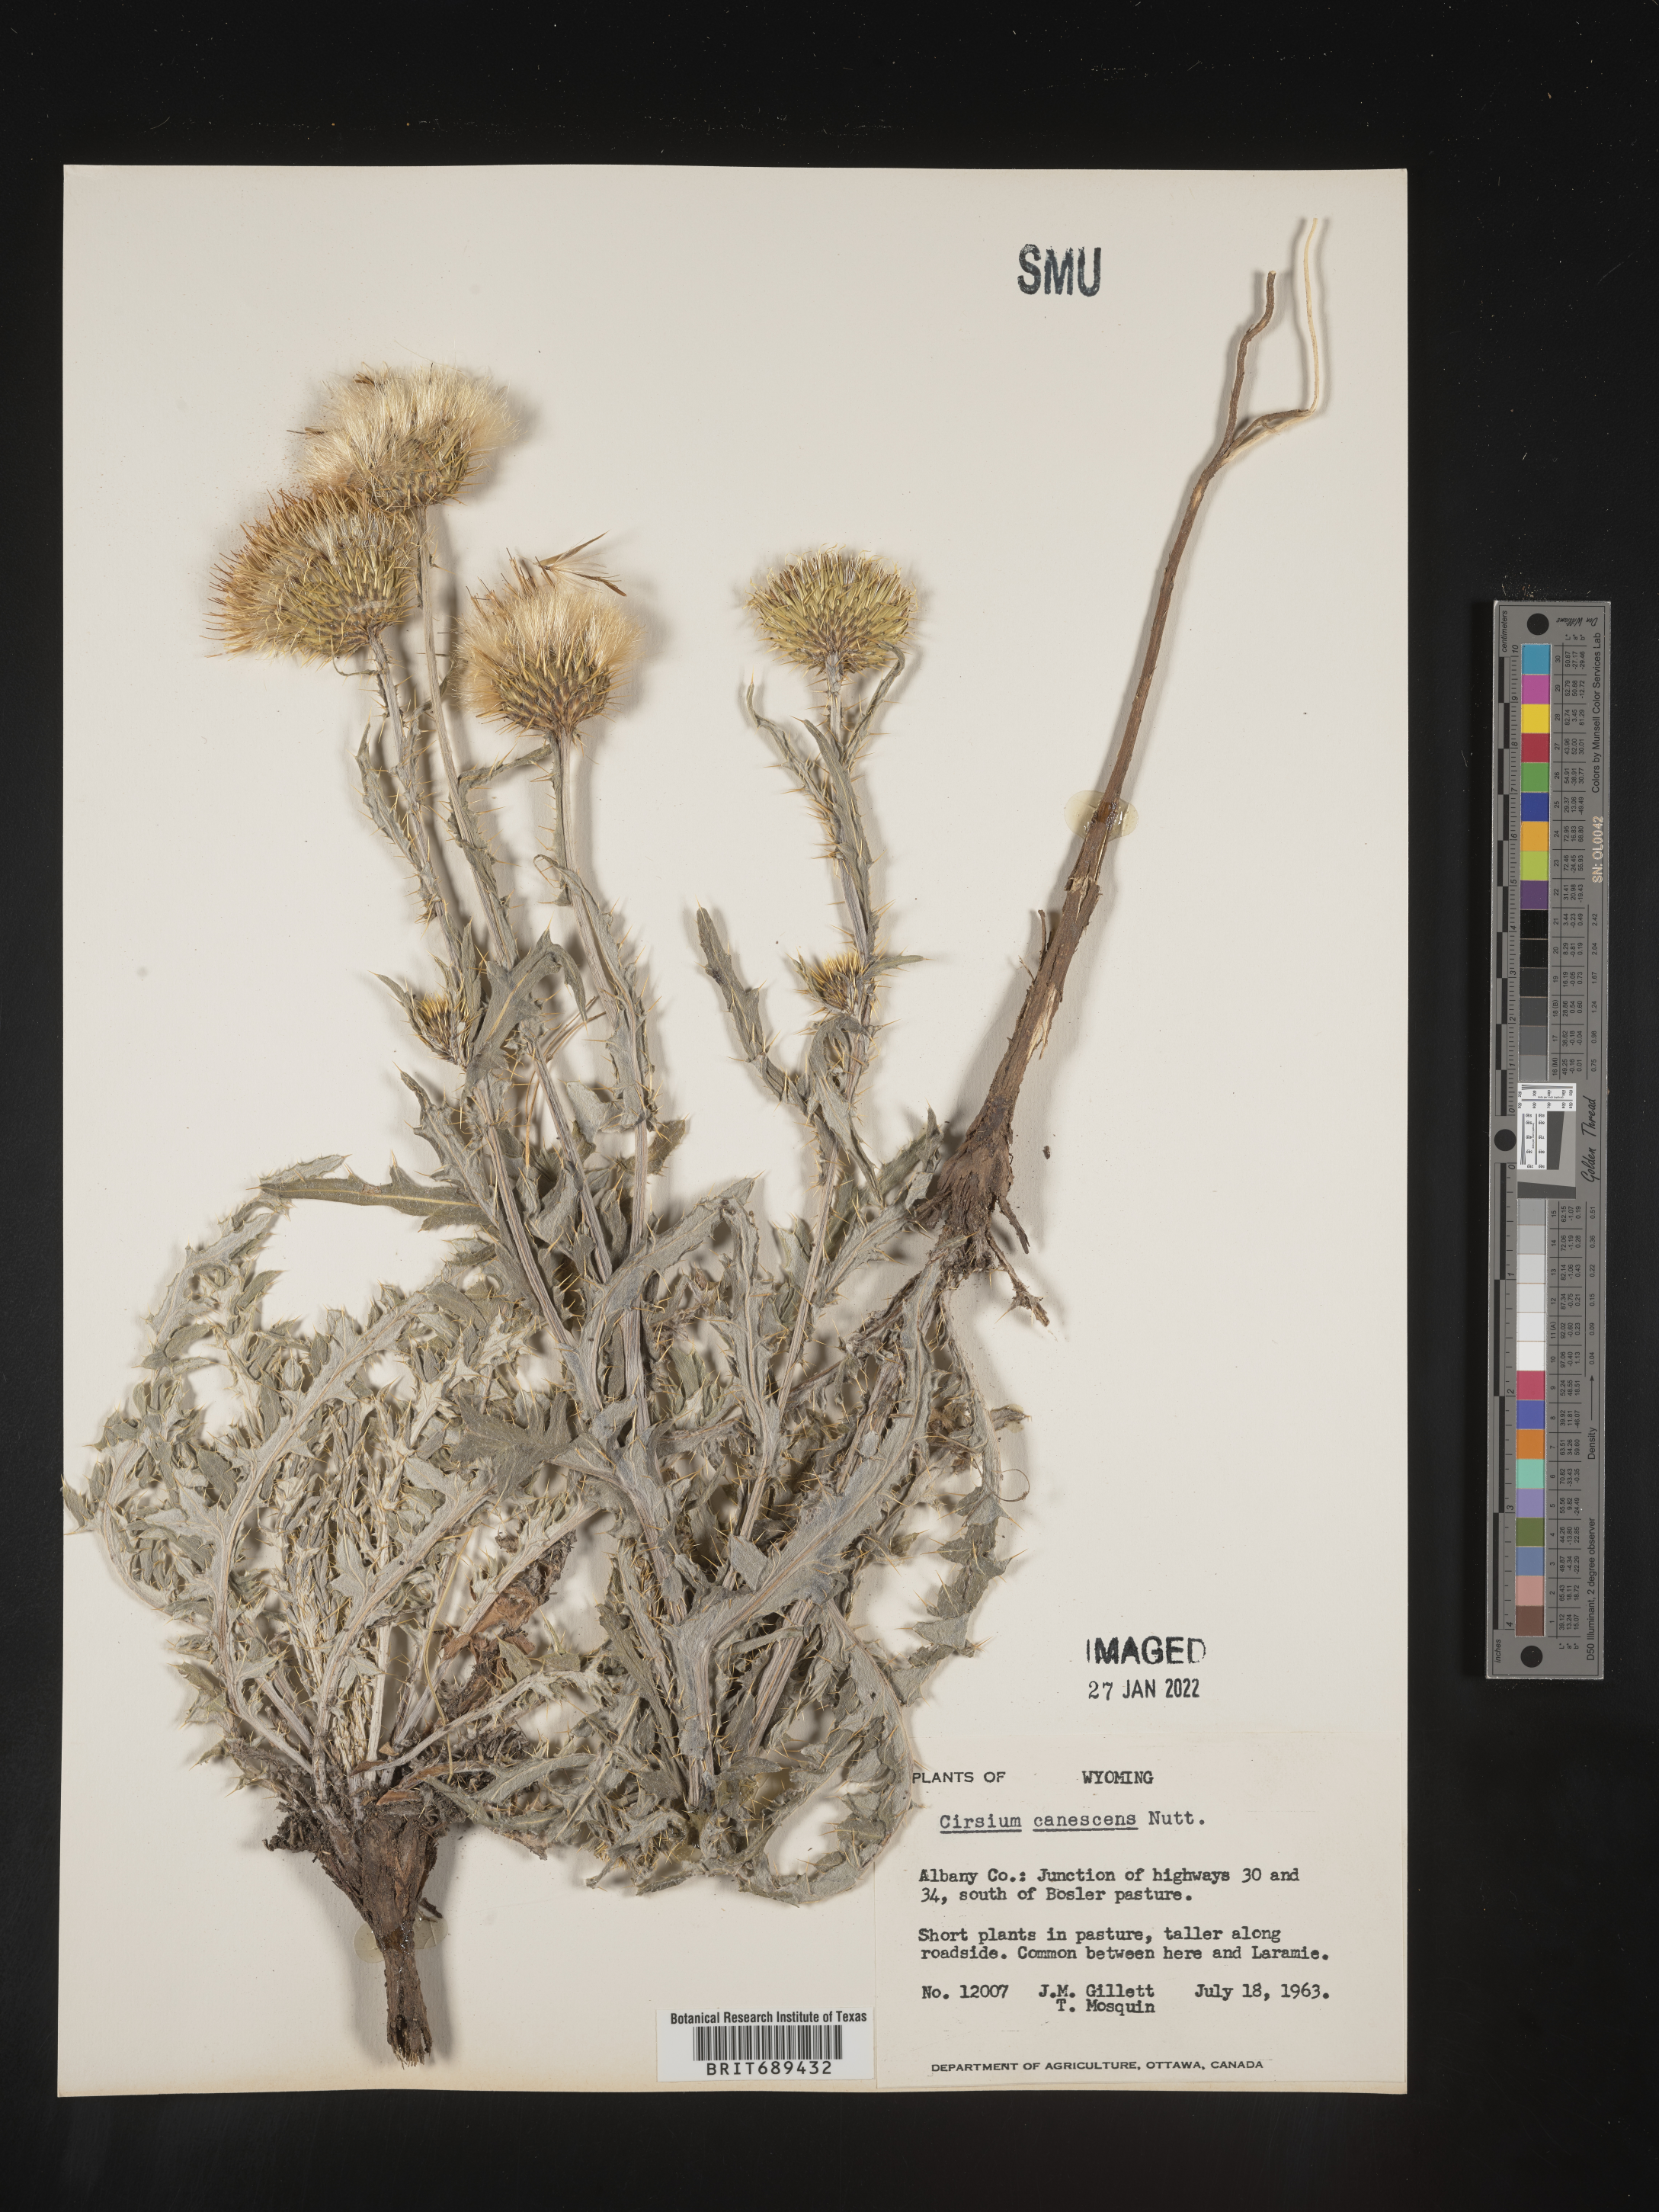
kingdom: Plantae
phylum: Tracheophyta
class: Magnoliopsida
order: Asterales
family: Asteraceae
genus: Cirsium
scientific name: Cirsium canescens
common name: Prairie thistle
